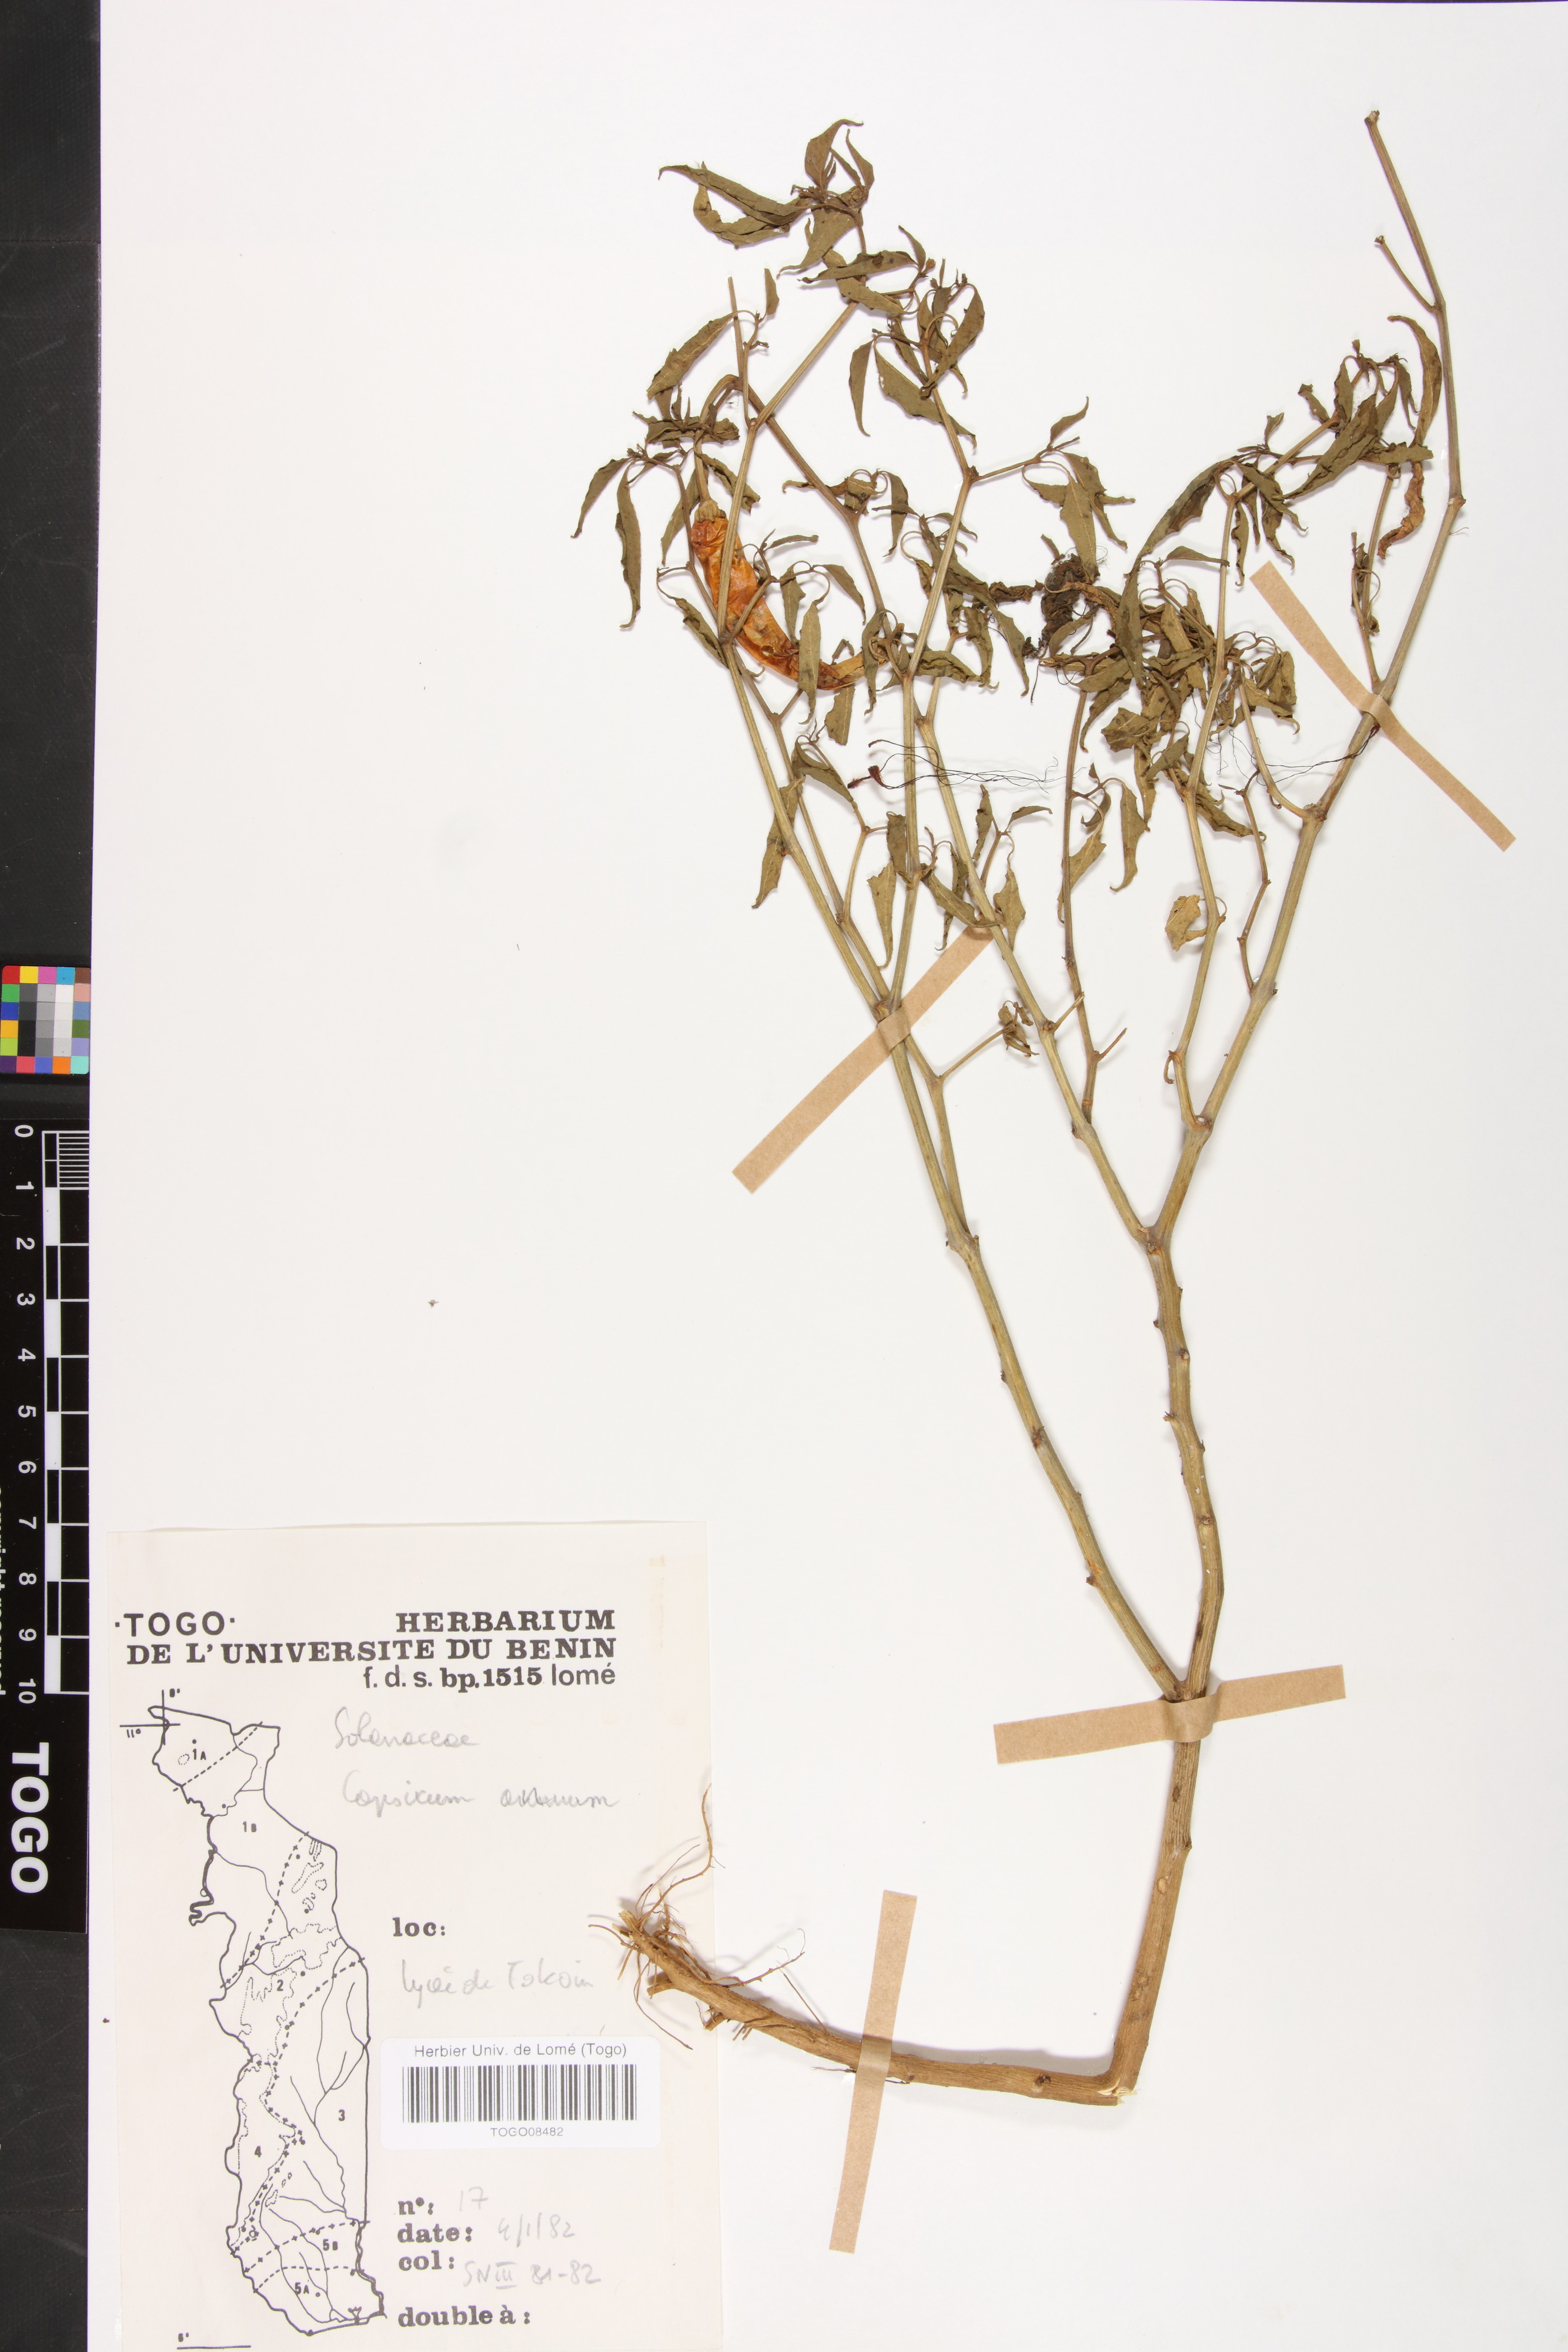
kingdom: Plantae
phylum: Tracheophyta
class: Magnoliopsida
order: Solanales
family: Solanaceae
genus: Capsicum
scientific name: Capsicum annuum
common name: Sweet pepper
